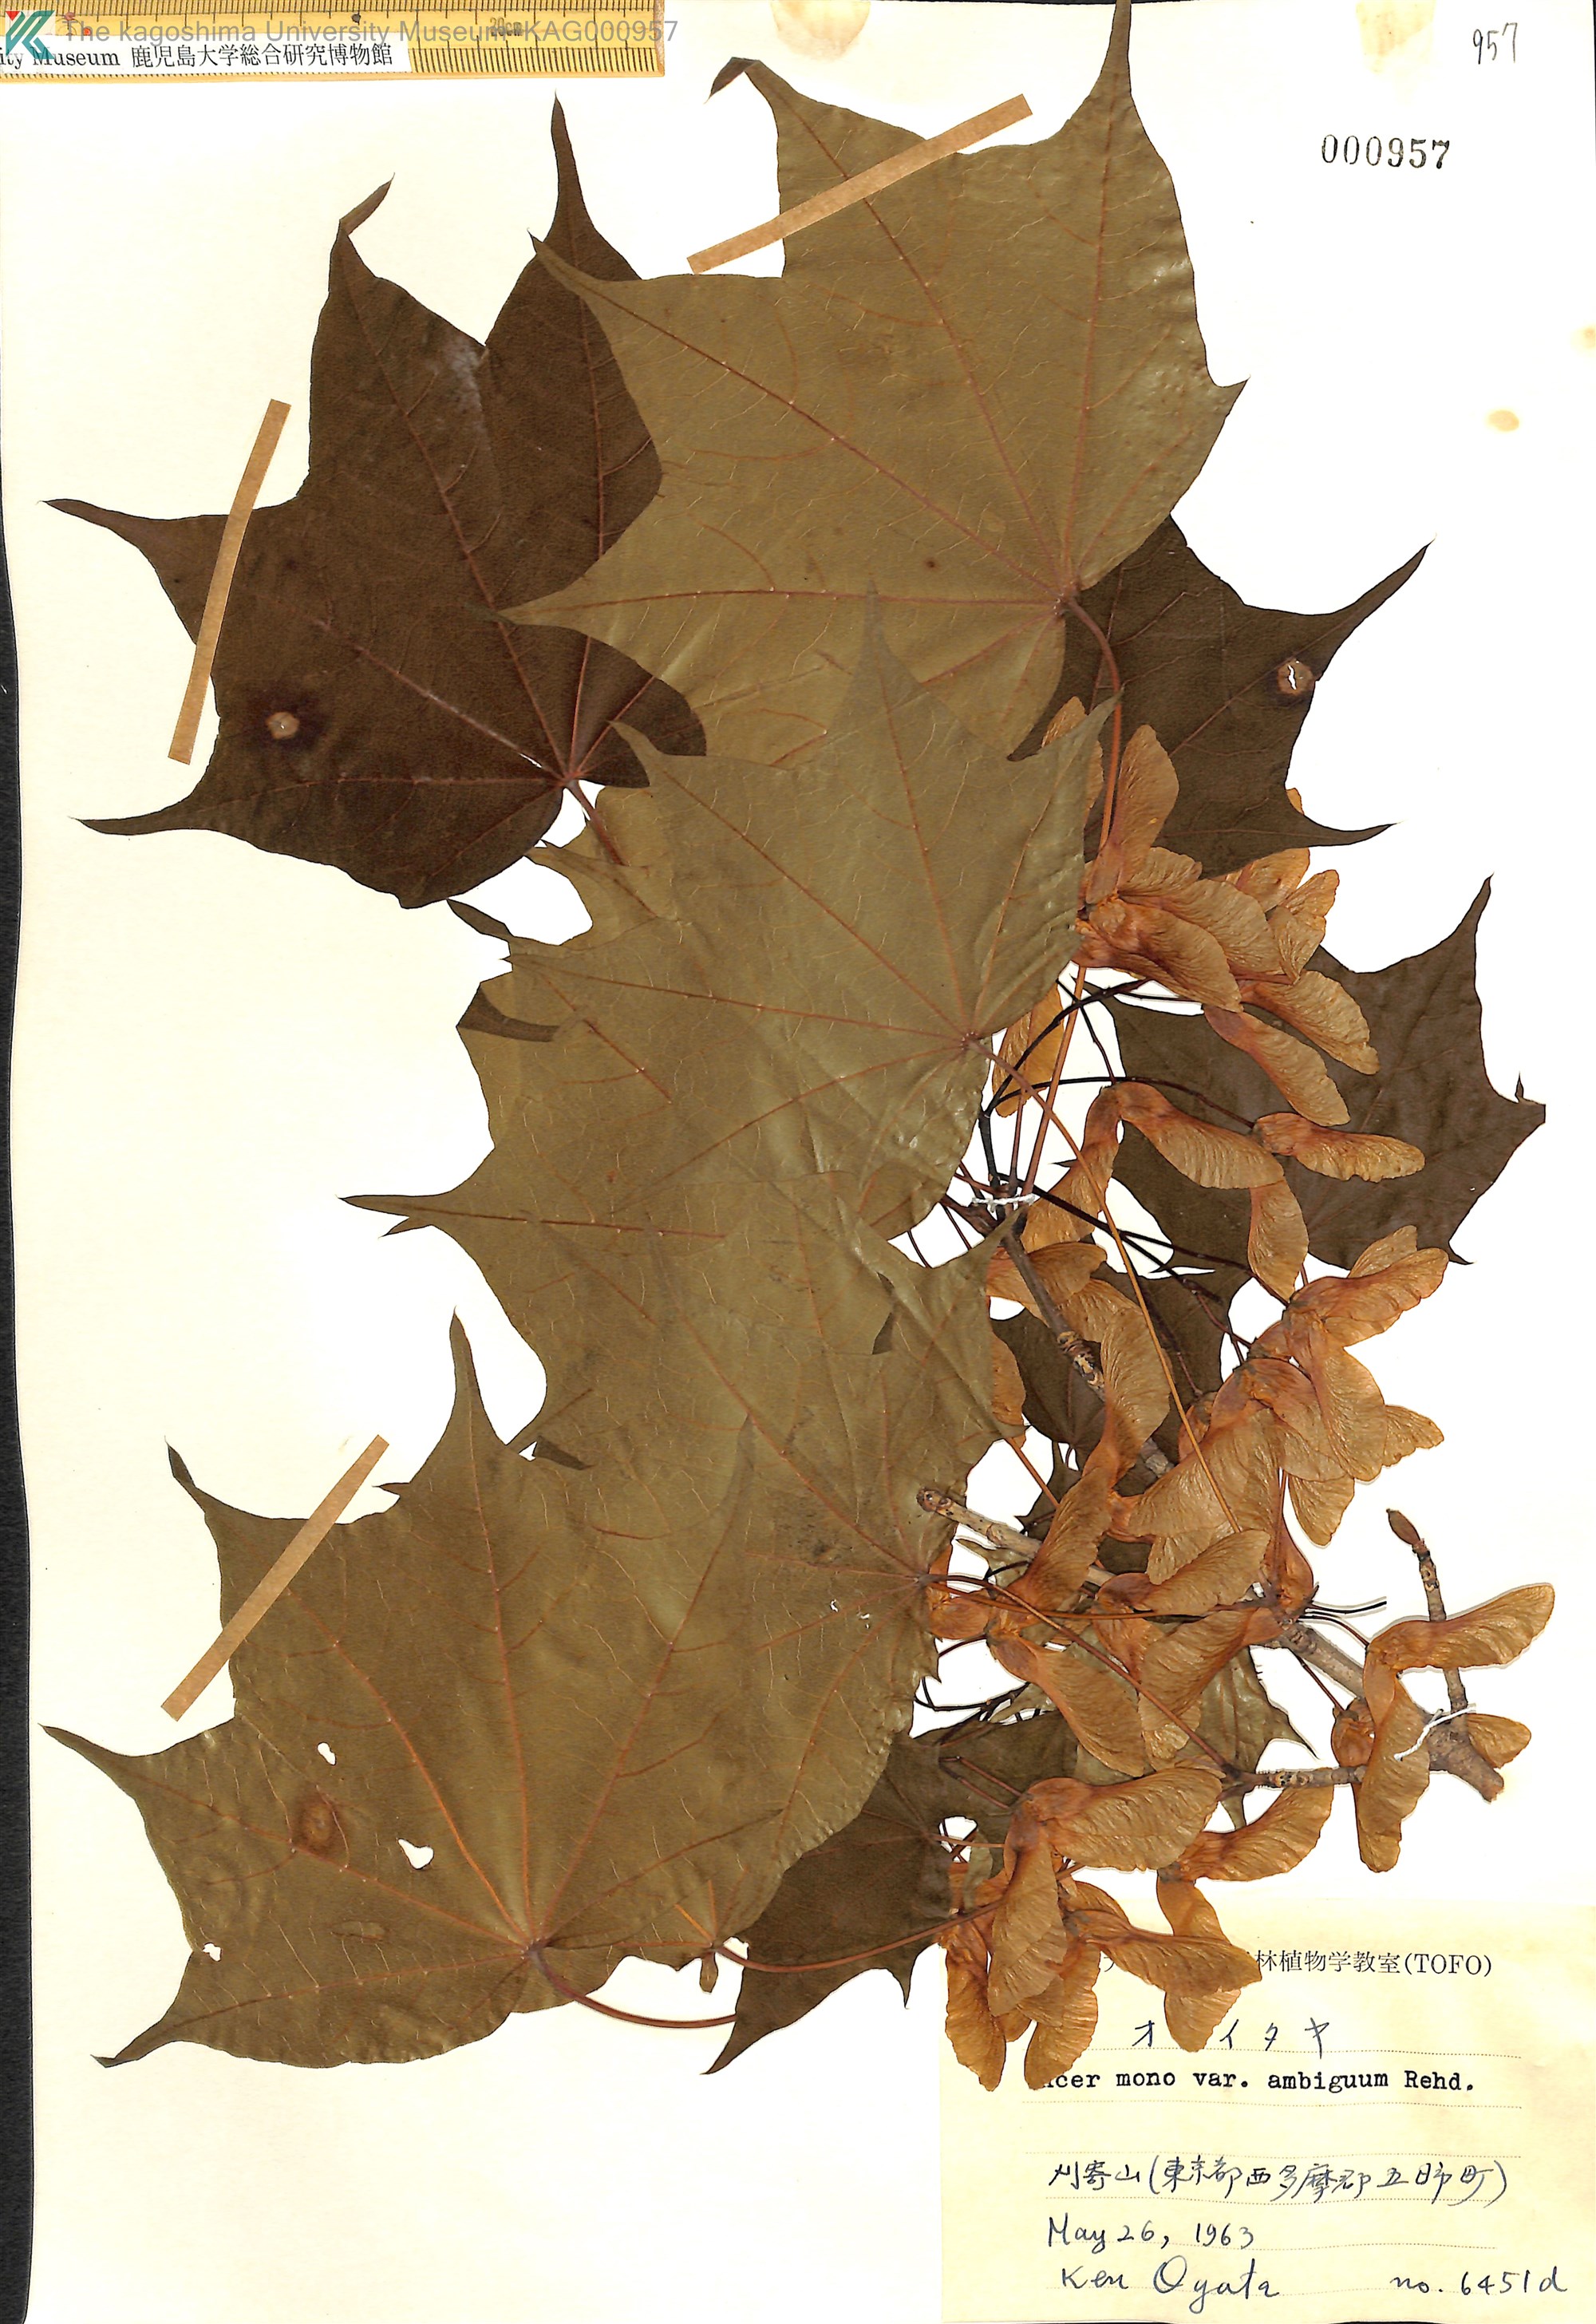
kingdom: Plantae
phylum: Tracheophyta
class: Magnoliopsida
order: Sapindales
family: Sapindaceae
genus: Acer
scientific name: Acer pictum
